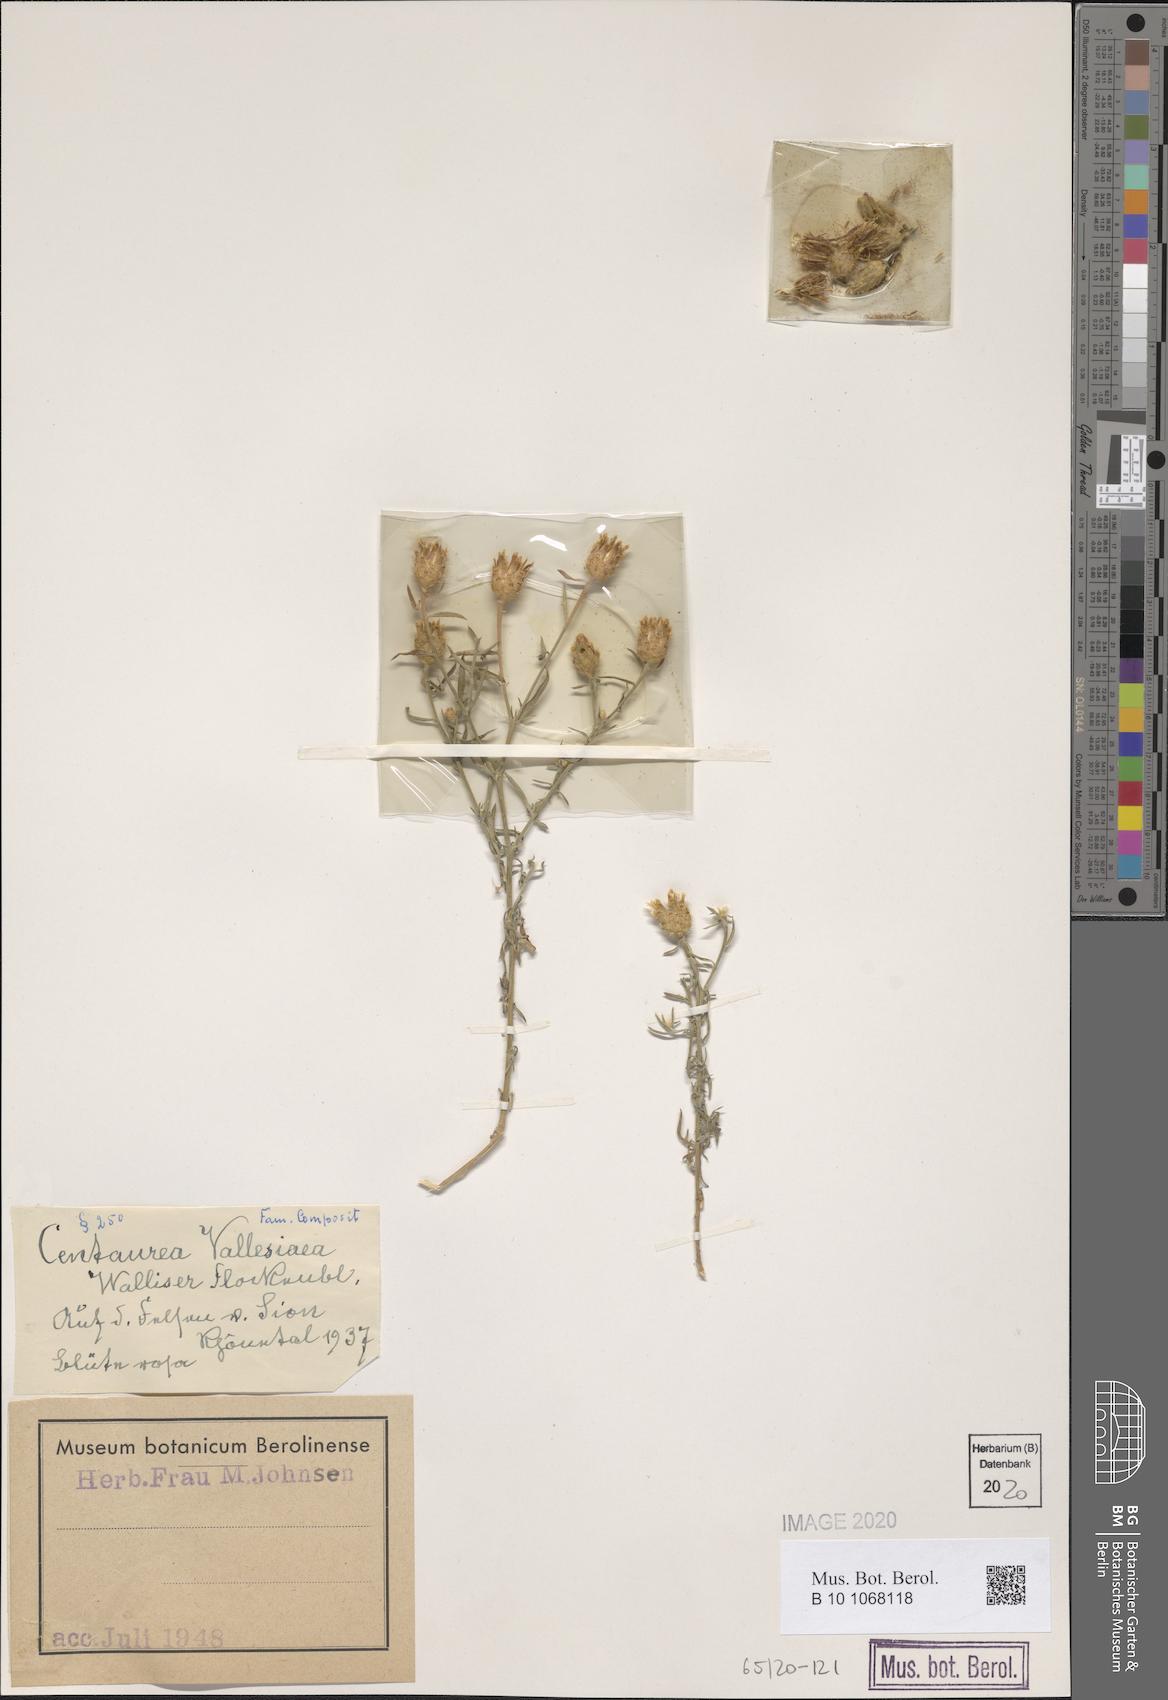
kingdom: Plantae
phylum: Tracheophyta
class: Magnoliopsida
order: Asterales
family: Asteraceae
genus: Centaurea
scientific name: Centaurea valesiaca
